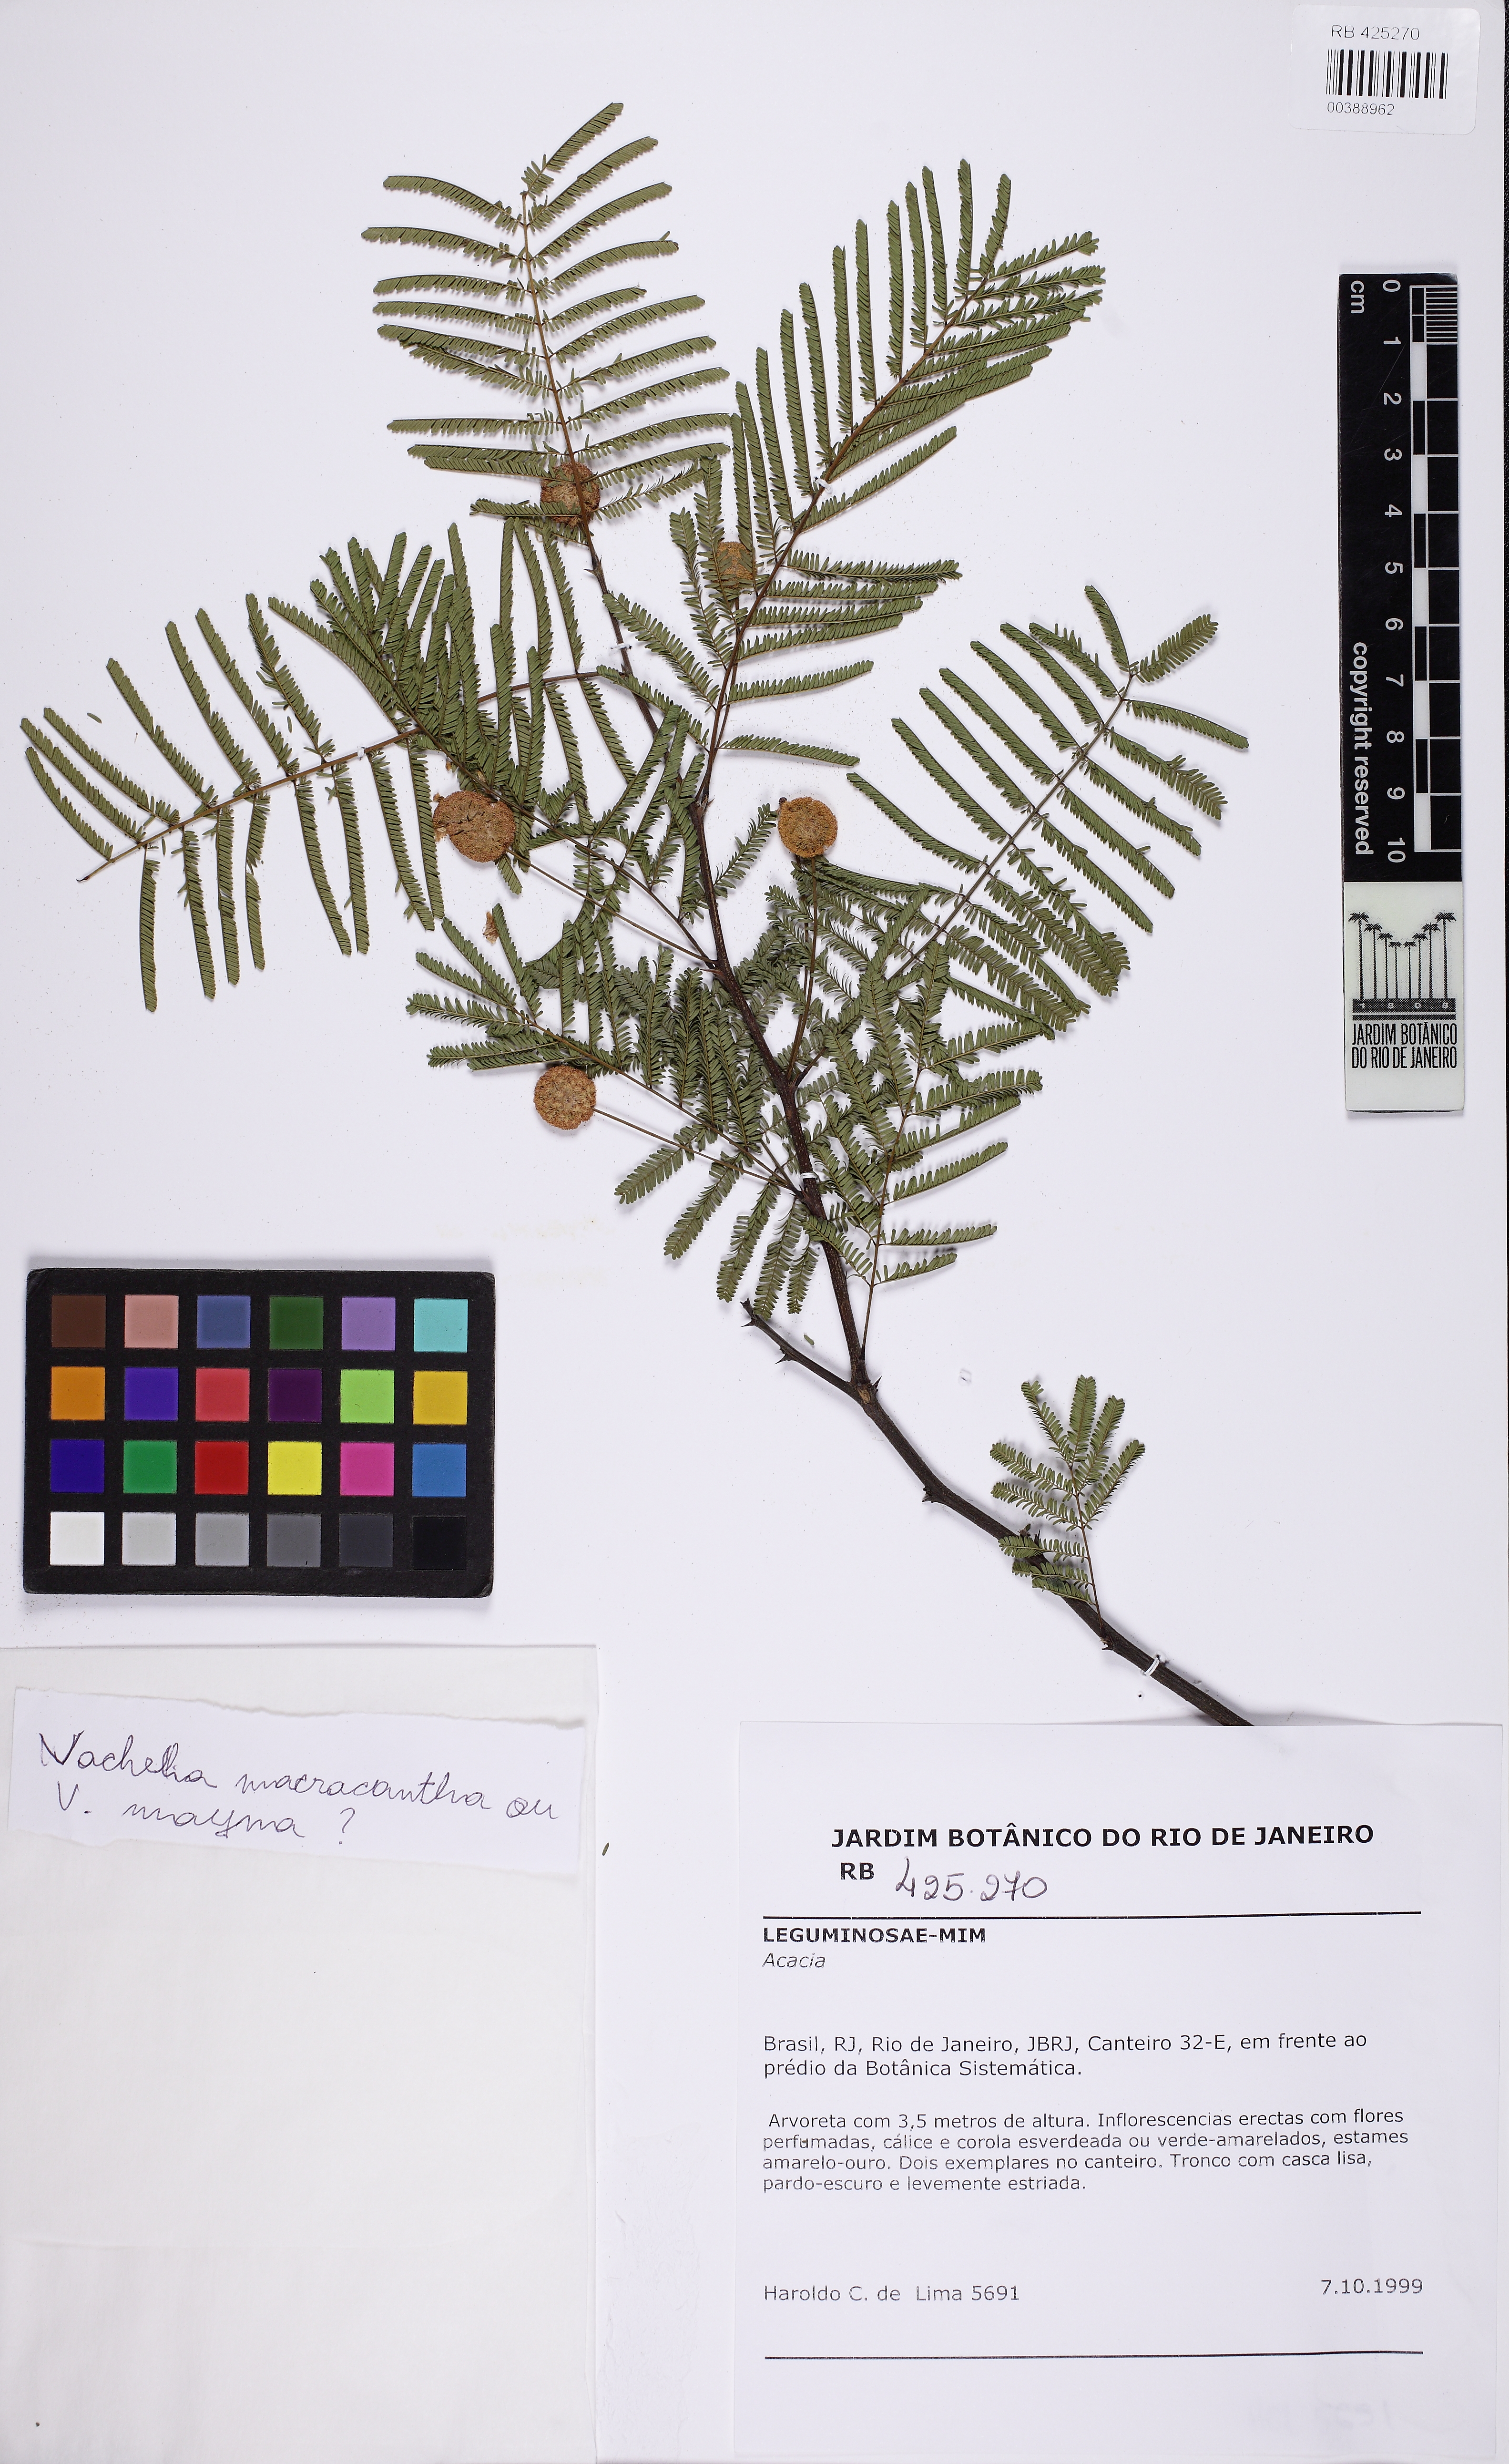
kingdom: Plantae
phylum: Tracheophyta
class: Magnoliopsida
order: Fabales
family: Fabaceae
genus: Acacia
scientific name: Acacia
